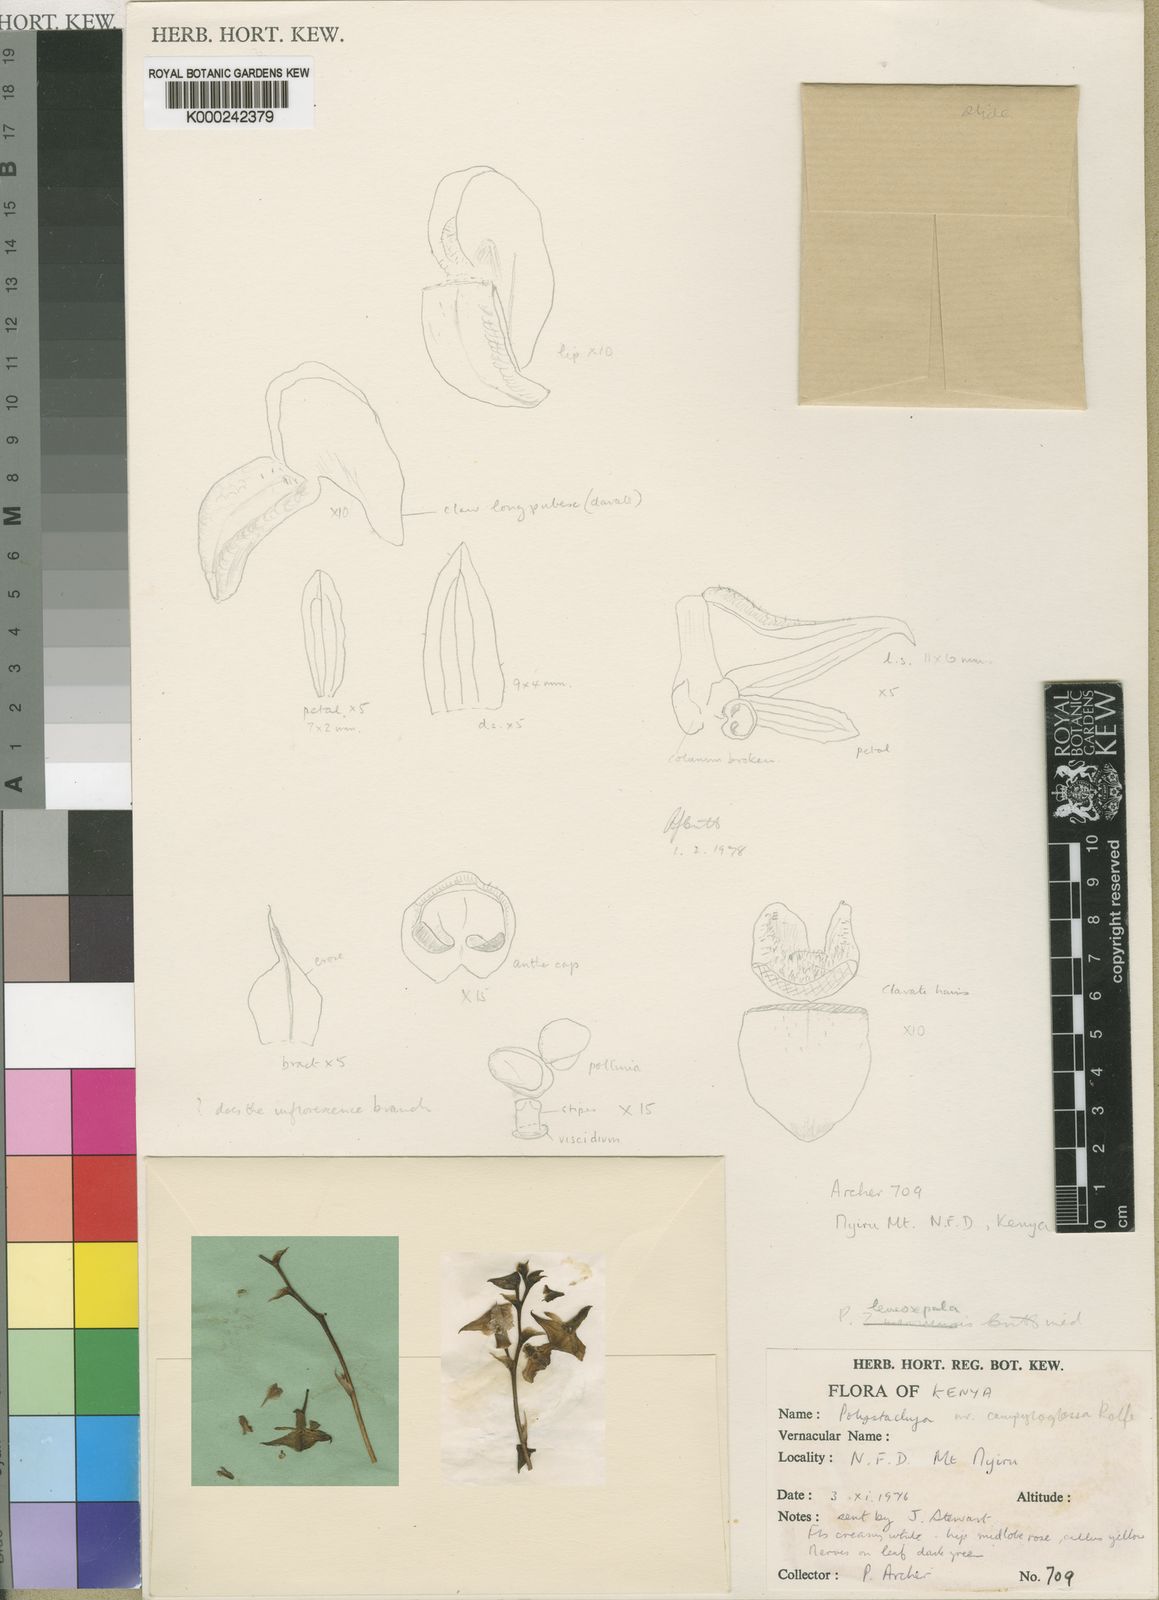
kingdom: Plantae
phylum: Tracheophyta
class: Liliopsida
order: Asparagales
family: Orchidaceae
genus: Polystachya
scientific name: Polystachya obanensis
